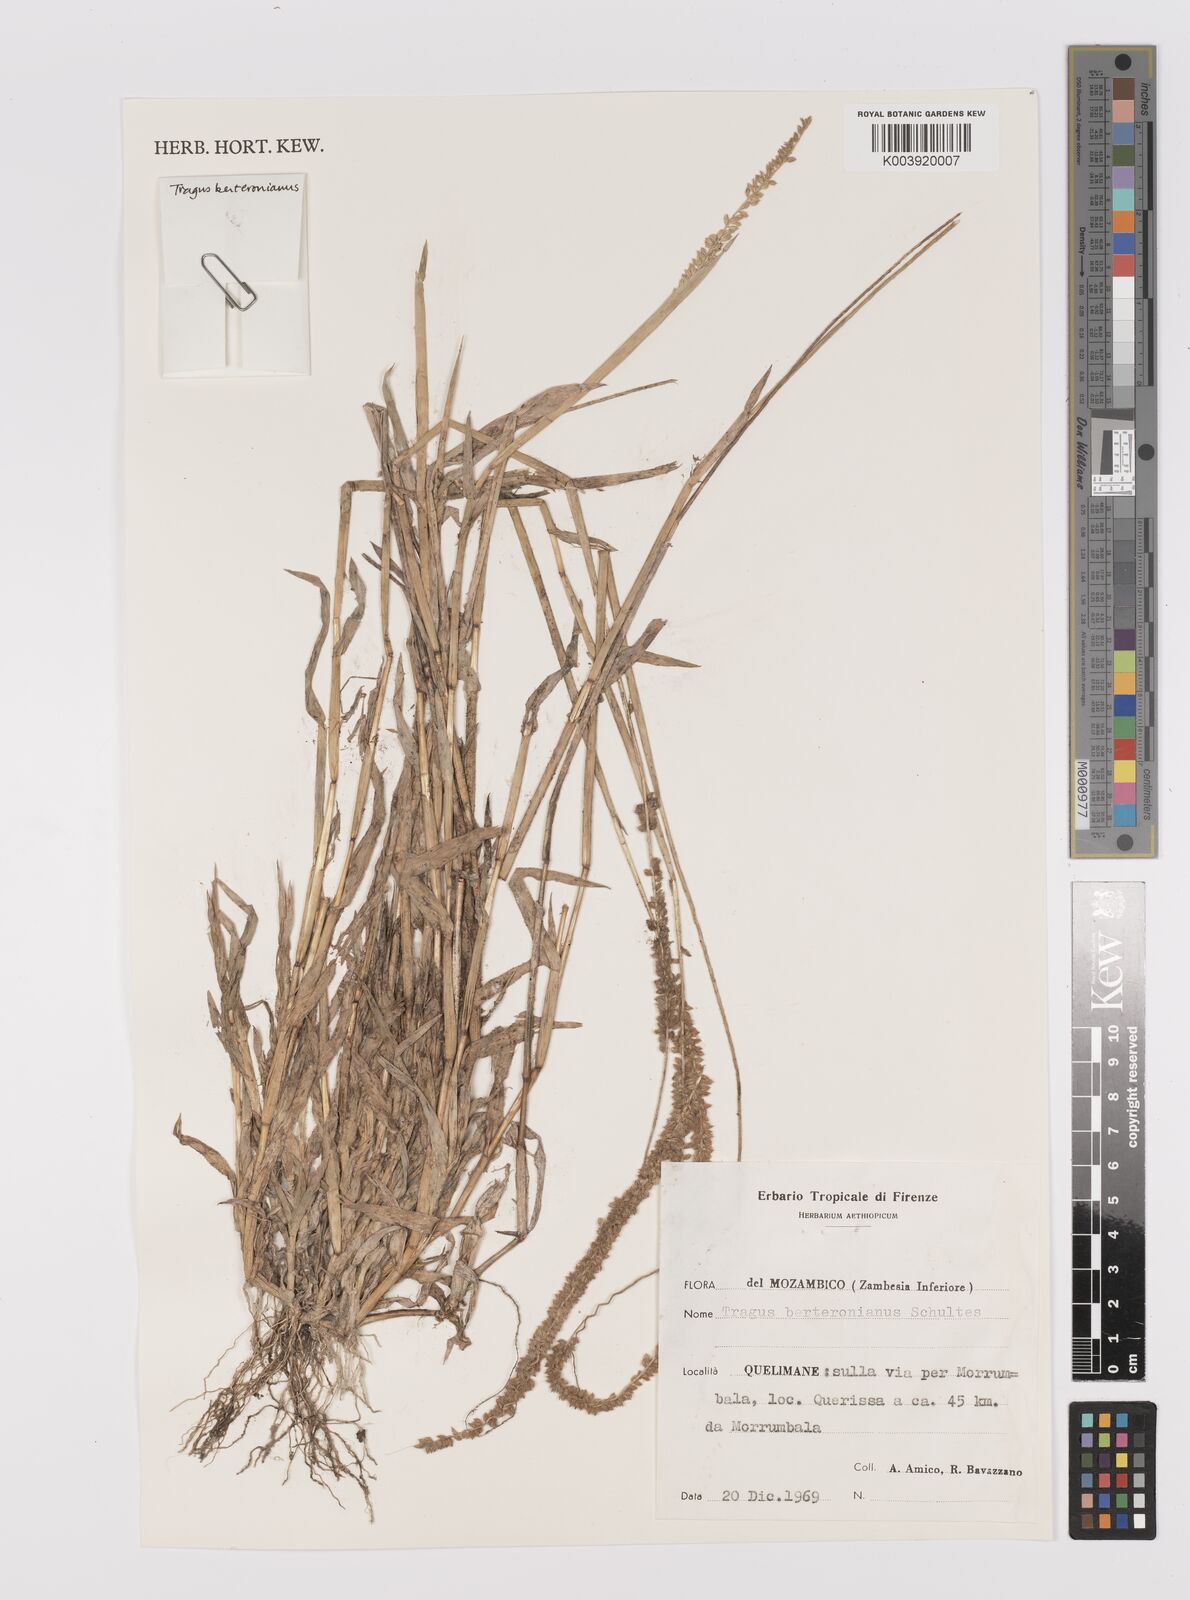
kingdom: Plantae
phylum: Tracheophyta
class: Liliopsida
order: Poales
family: Poaceae
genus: Tragus
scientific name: Tragus berteronianus
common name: African bur-grass
